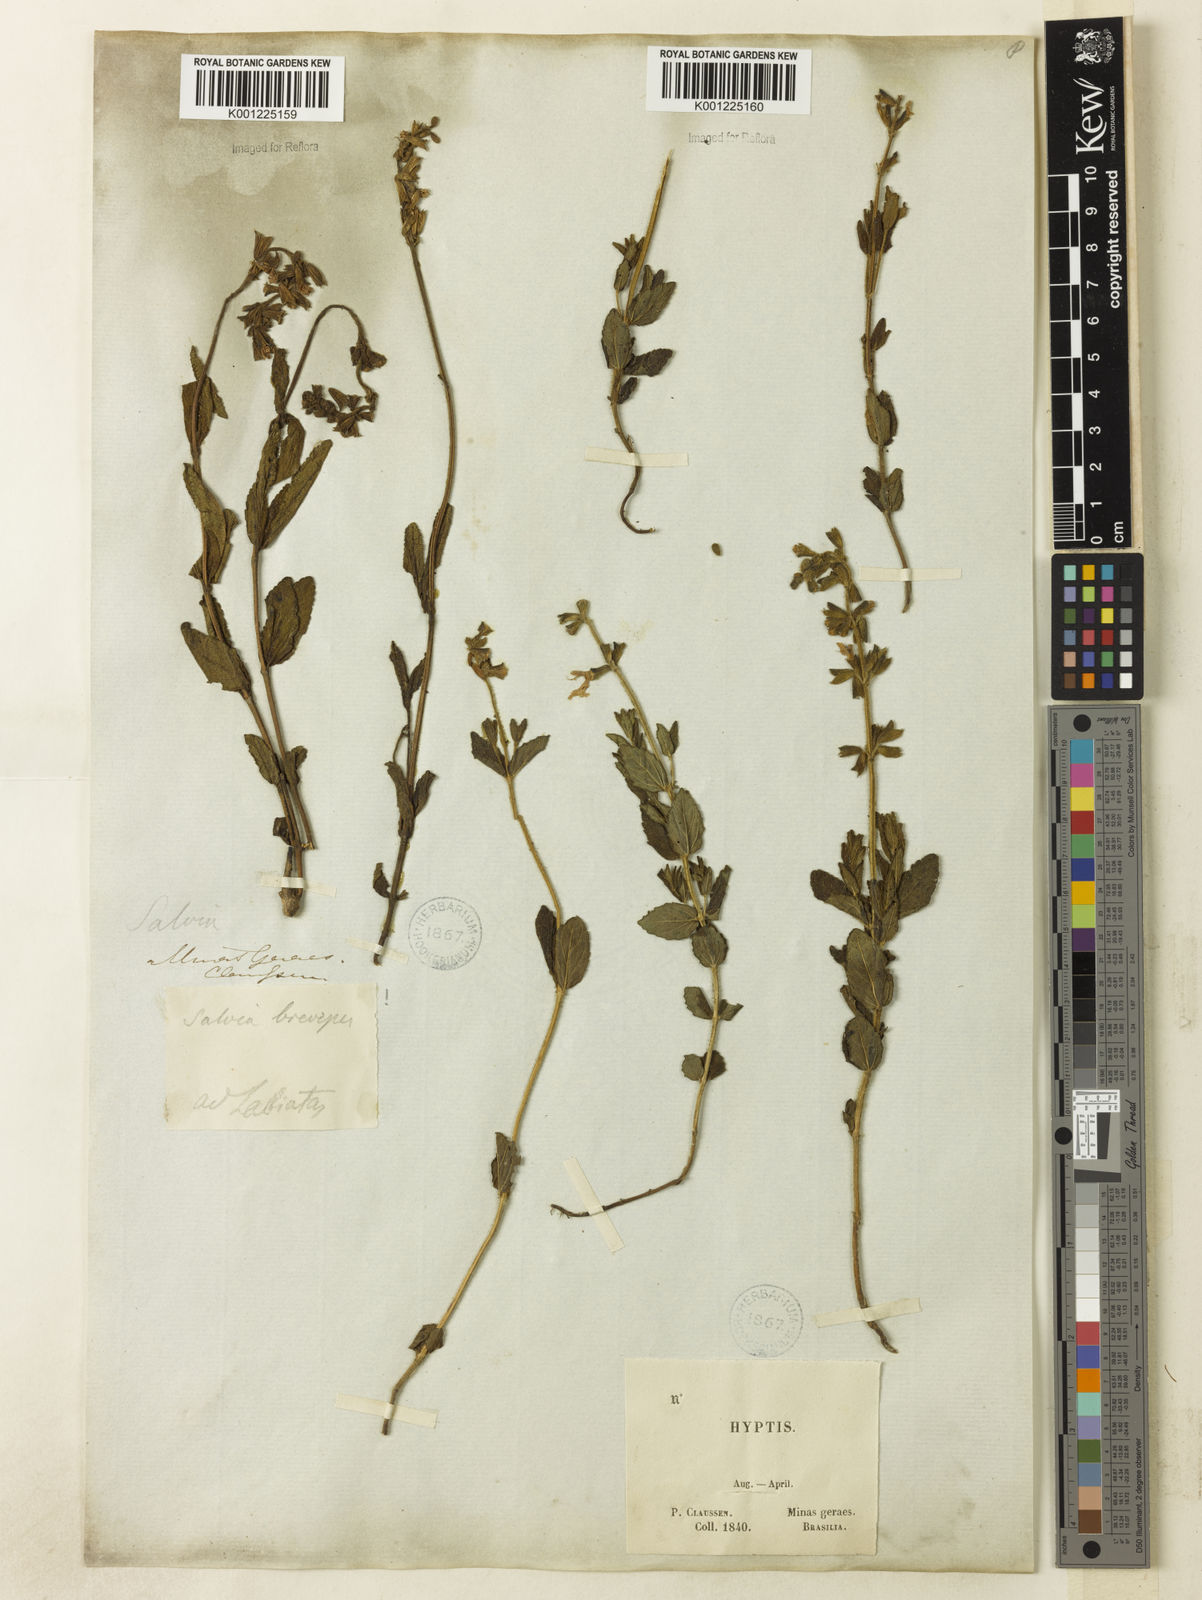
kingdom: Plantae
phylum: Tracheophyta
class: Magnoliopsida
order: Lamiales
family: Lamiaceae
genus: Salvia
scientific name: Salvia brevipes
